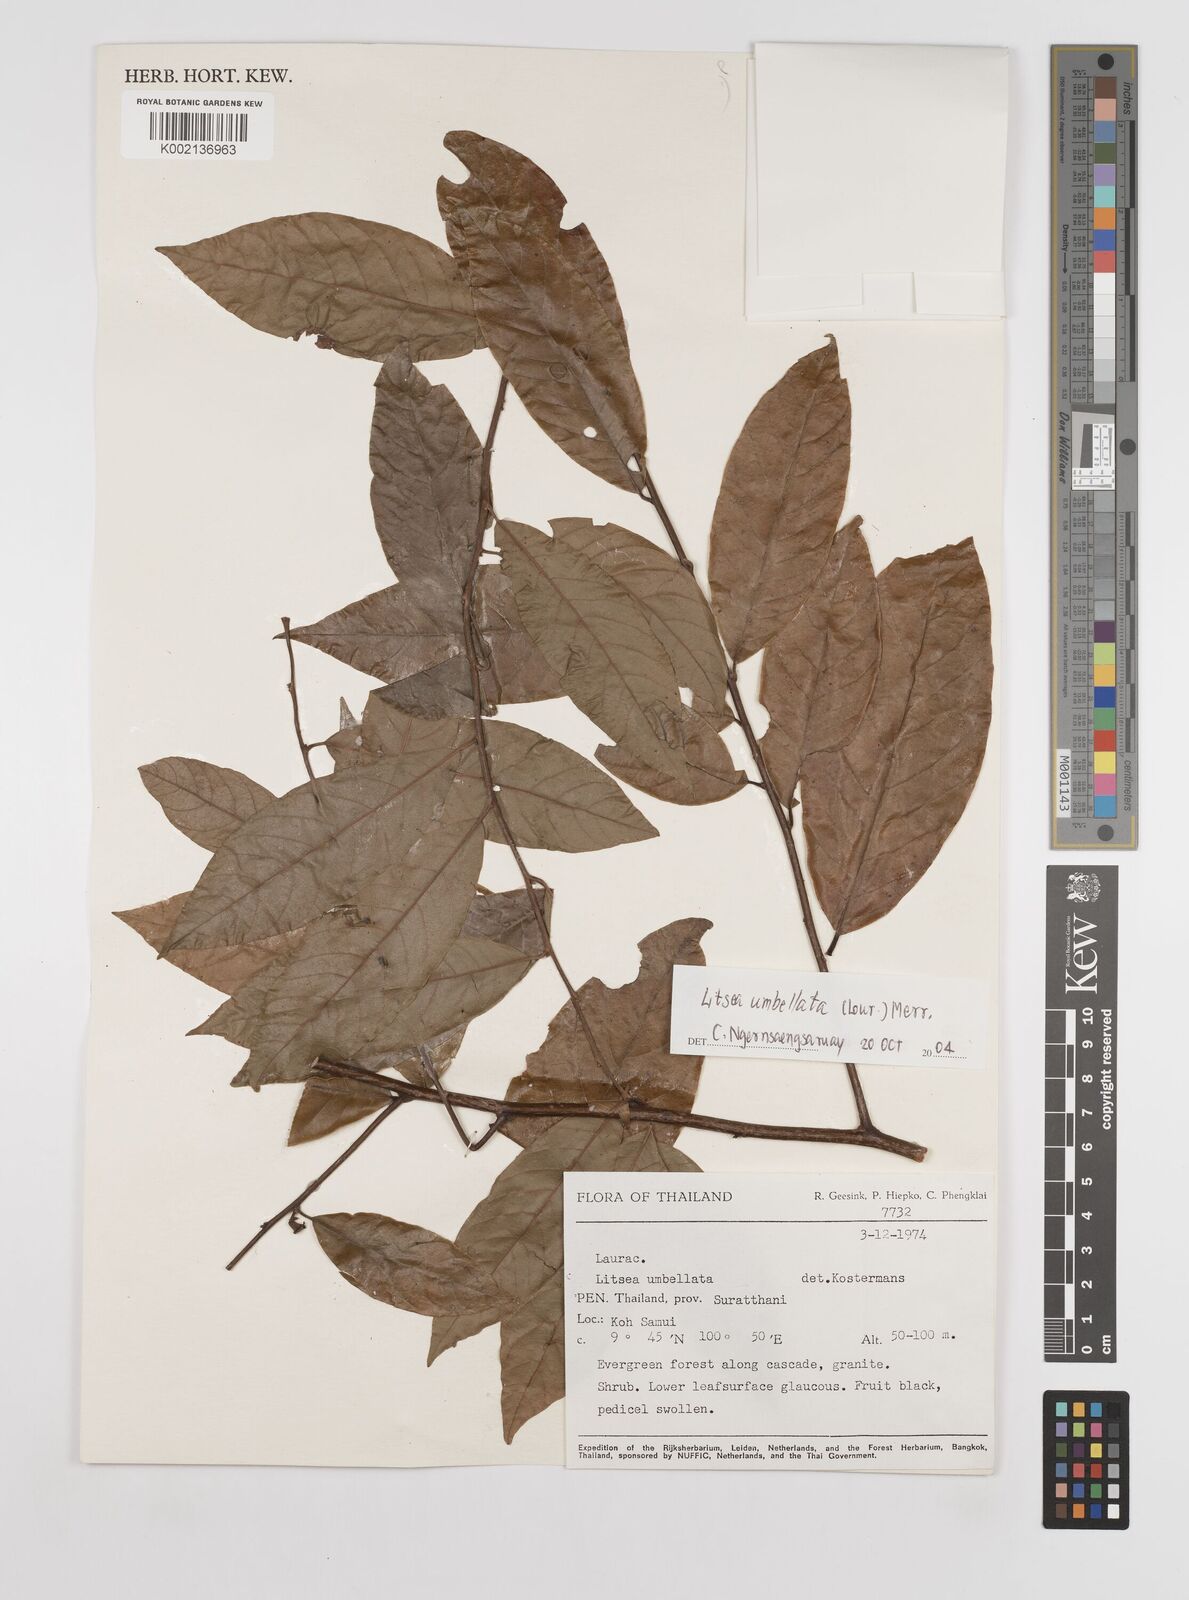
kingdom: Plantae
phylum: Tracheophyta
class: Magnoliopsida
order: Laurales
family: Lauraceae
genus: Litsea
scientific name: Litsea umbellata
